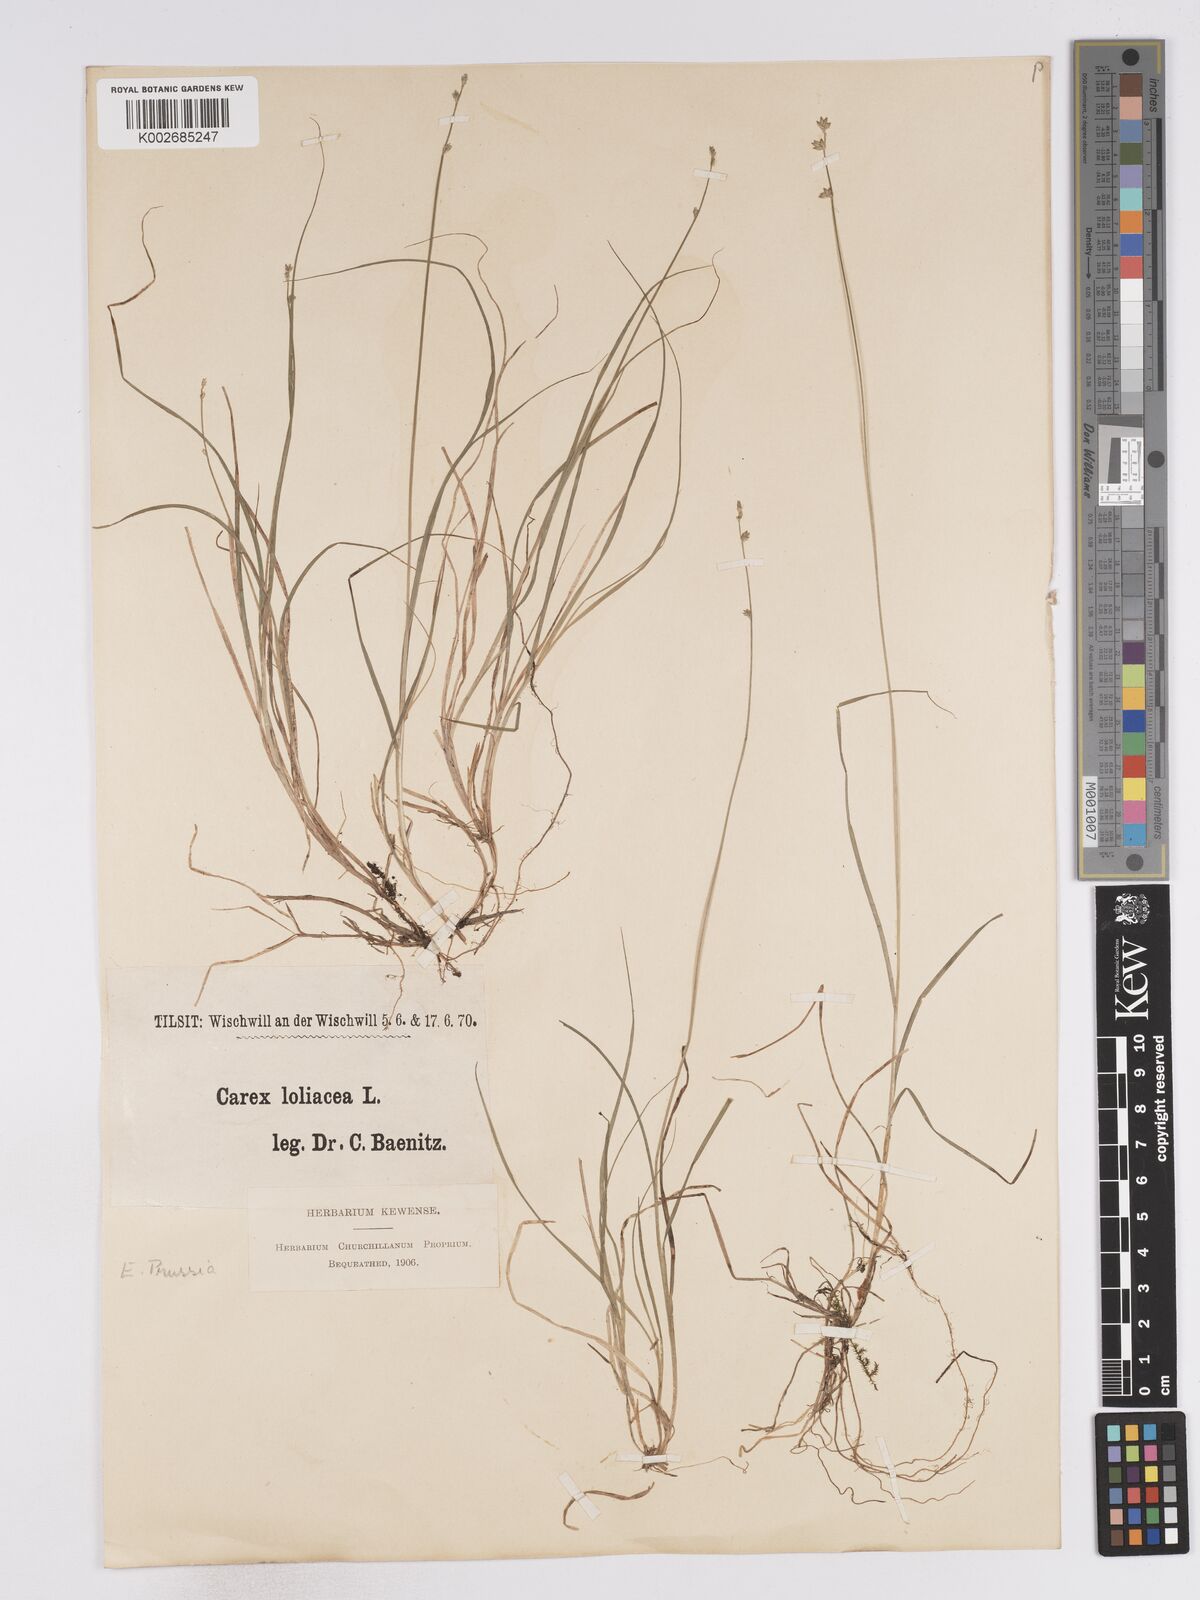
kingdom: Plantae
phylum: Tracheophyta
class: Liliopsida
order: Poales
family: Cyperaceae
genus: Carex
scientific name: Carex loliacea
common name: Ryegrass sedge
